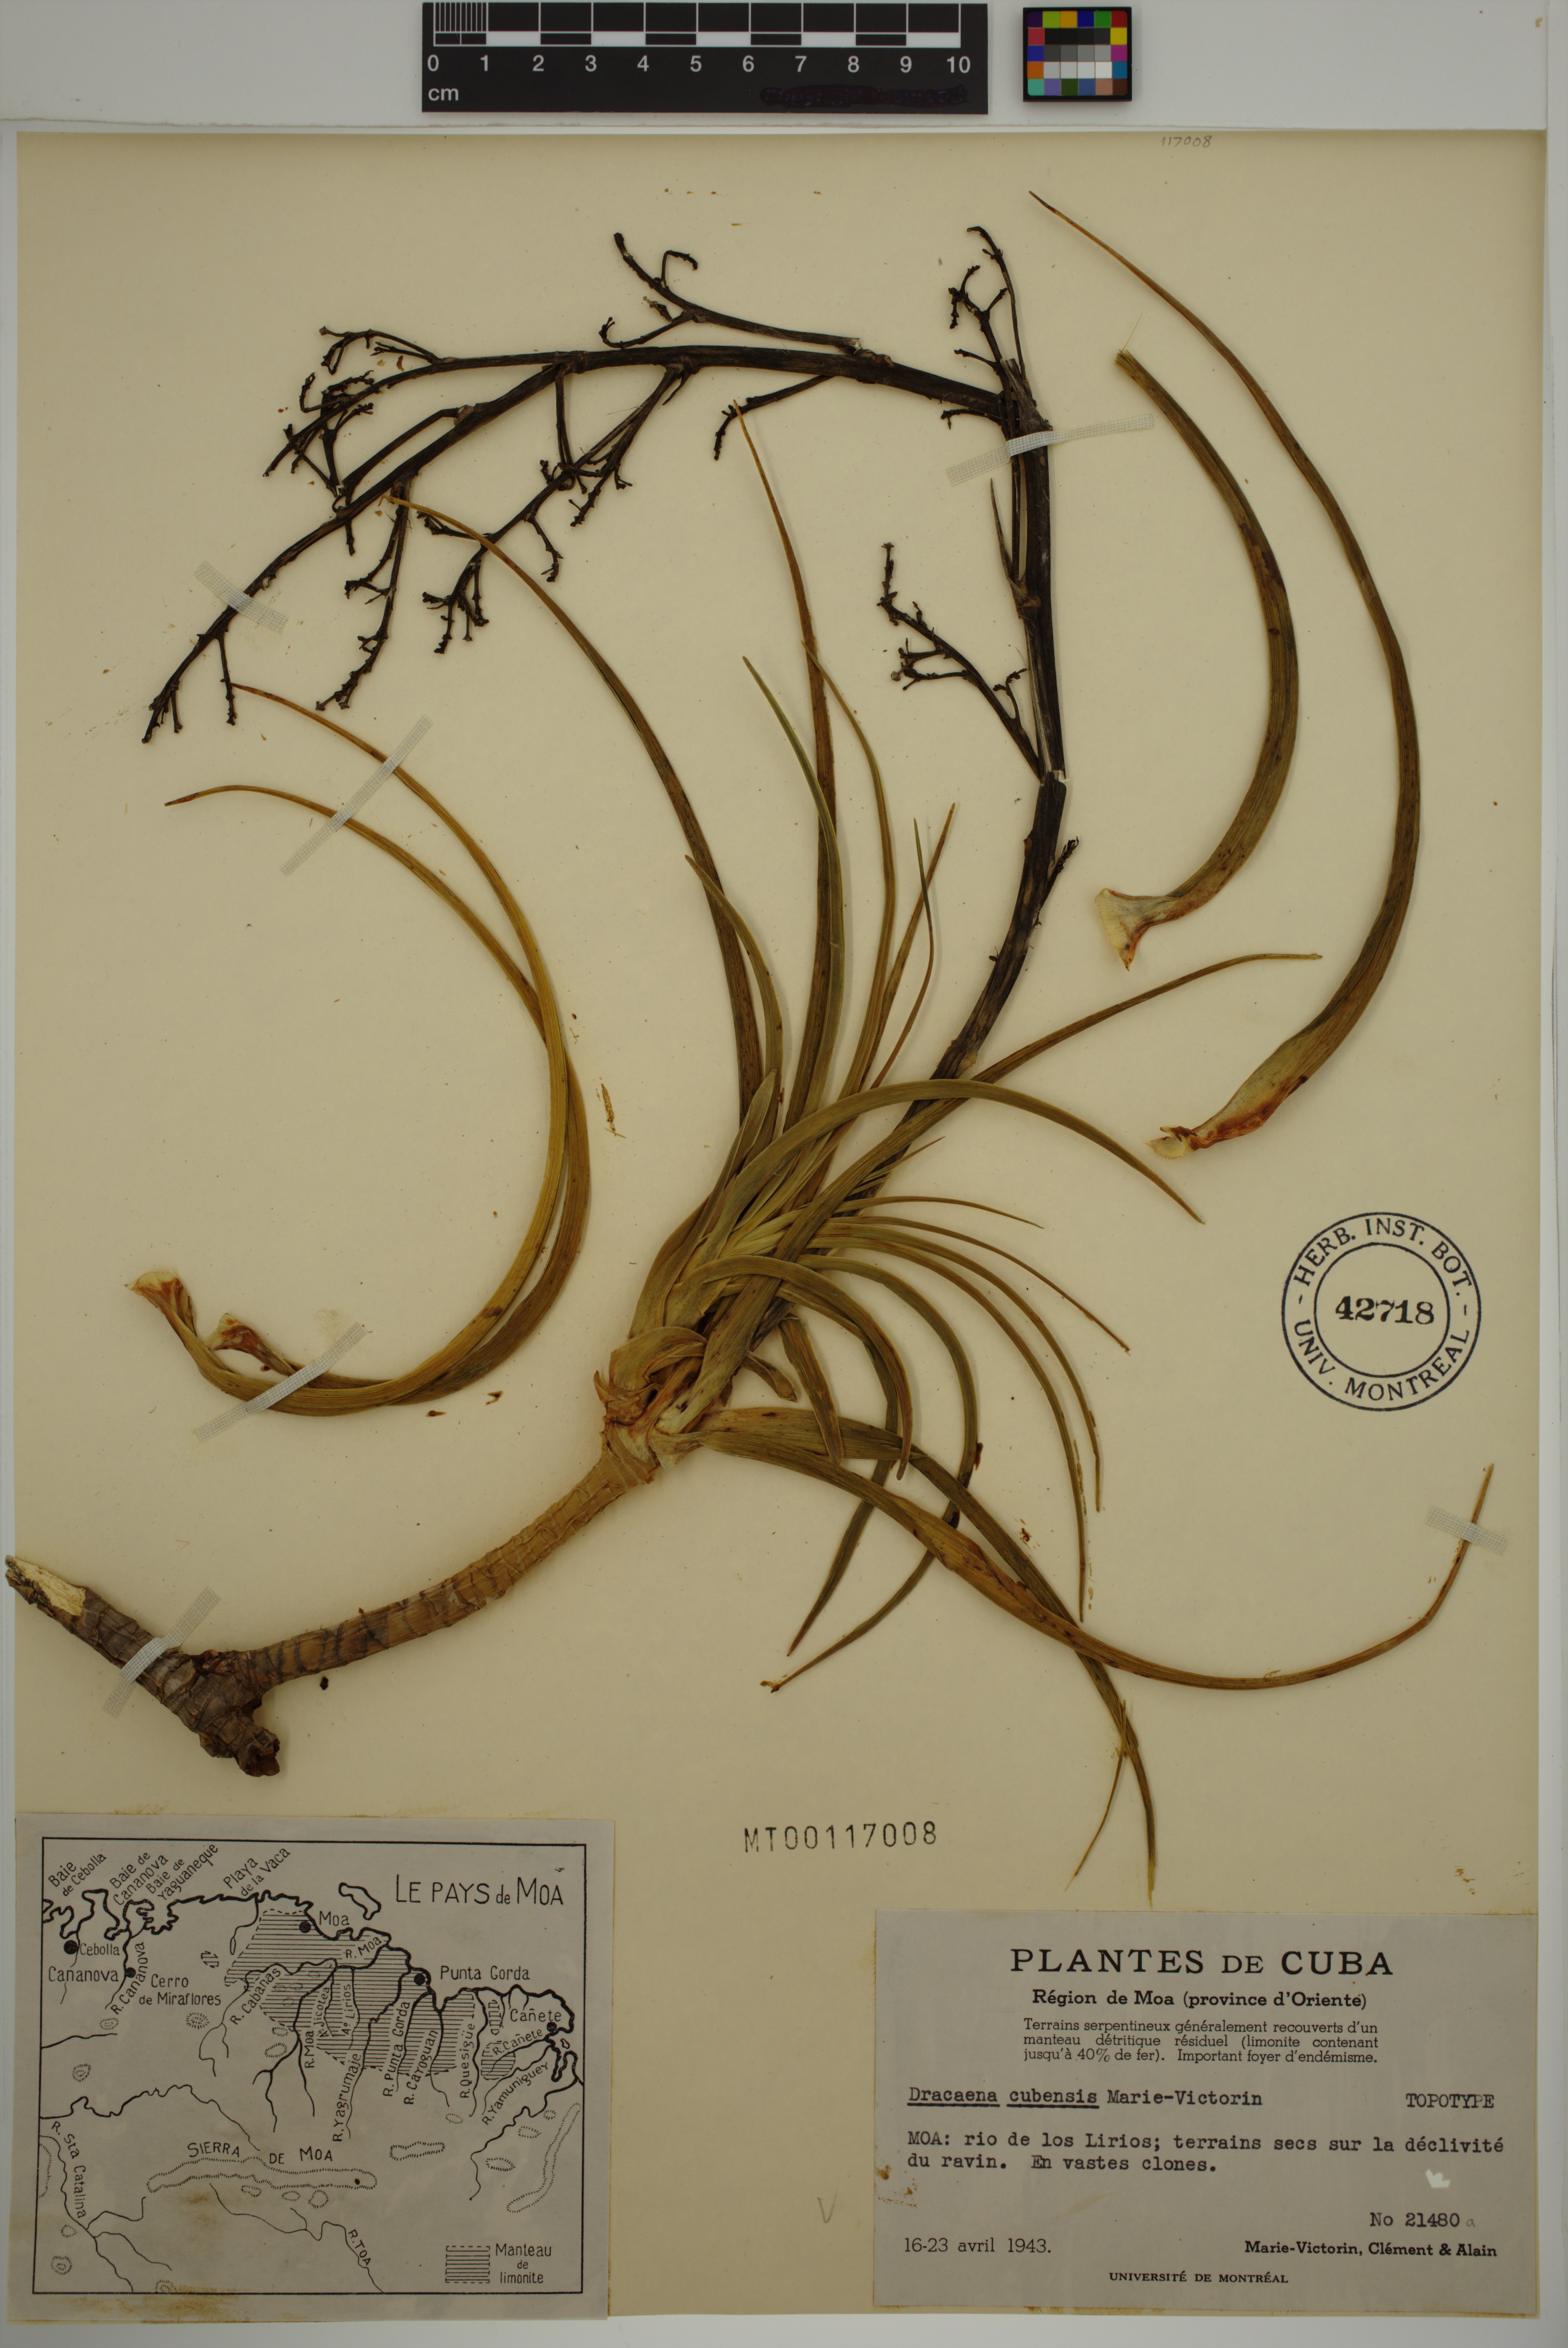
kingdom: Plantae
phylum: Tracheophyta
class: Liliopsida
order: Asparagales
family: Asparagaceae
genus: Dracaena
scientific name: Dracaena cubensis
